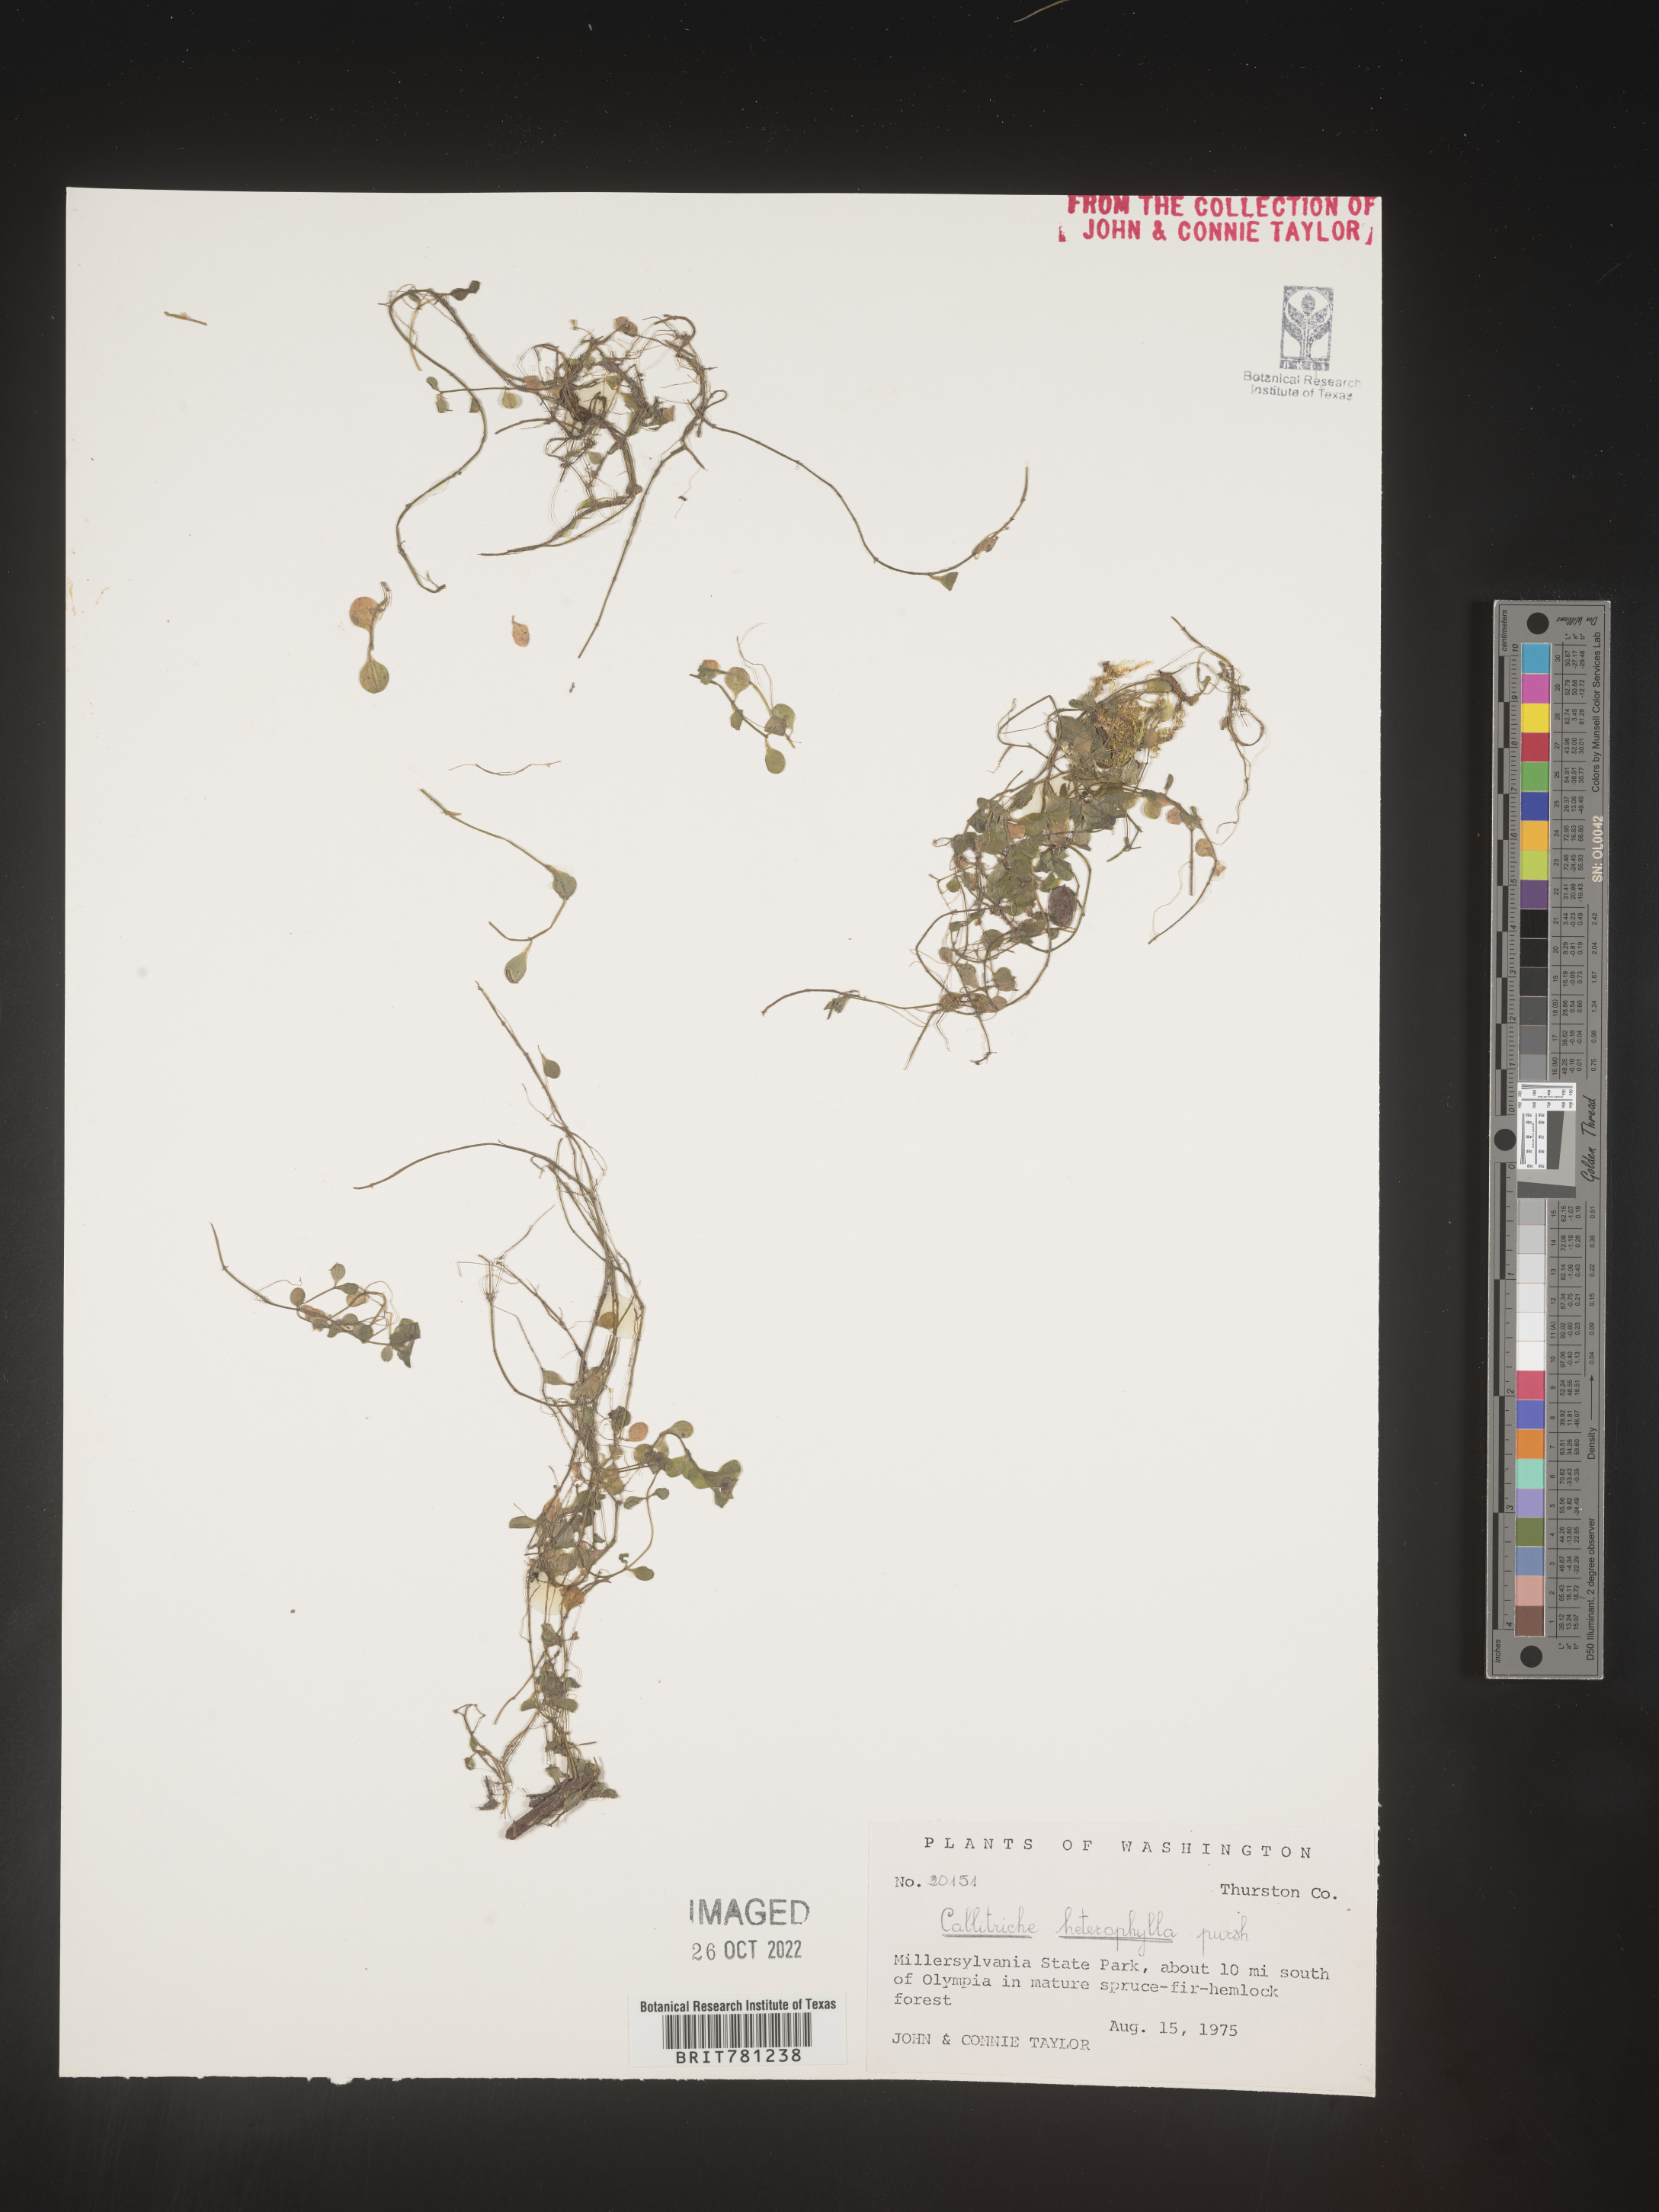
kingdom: Plantae
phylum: Tracheophyta
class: Magnoliopsida
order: Lamiales
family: Plantaginaceae
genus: Callitriche
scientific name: Callitriche heterophylla
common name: Two-headed water-starwort
